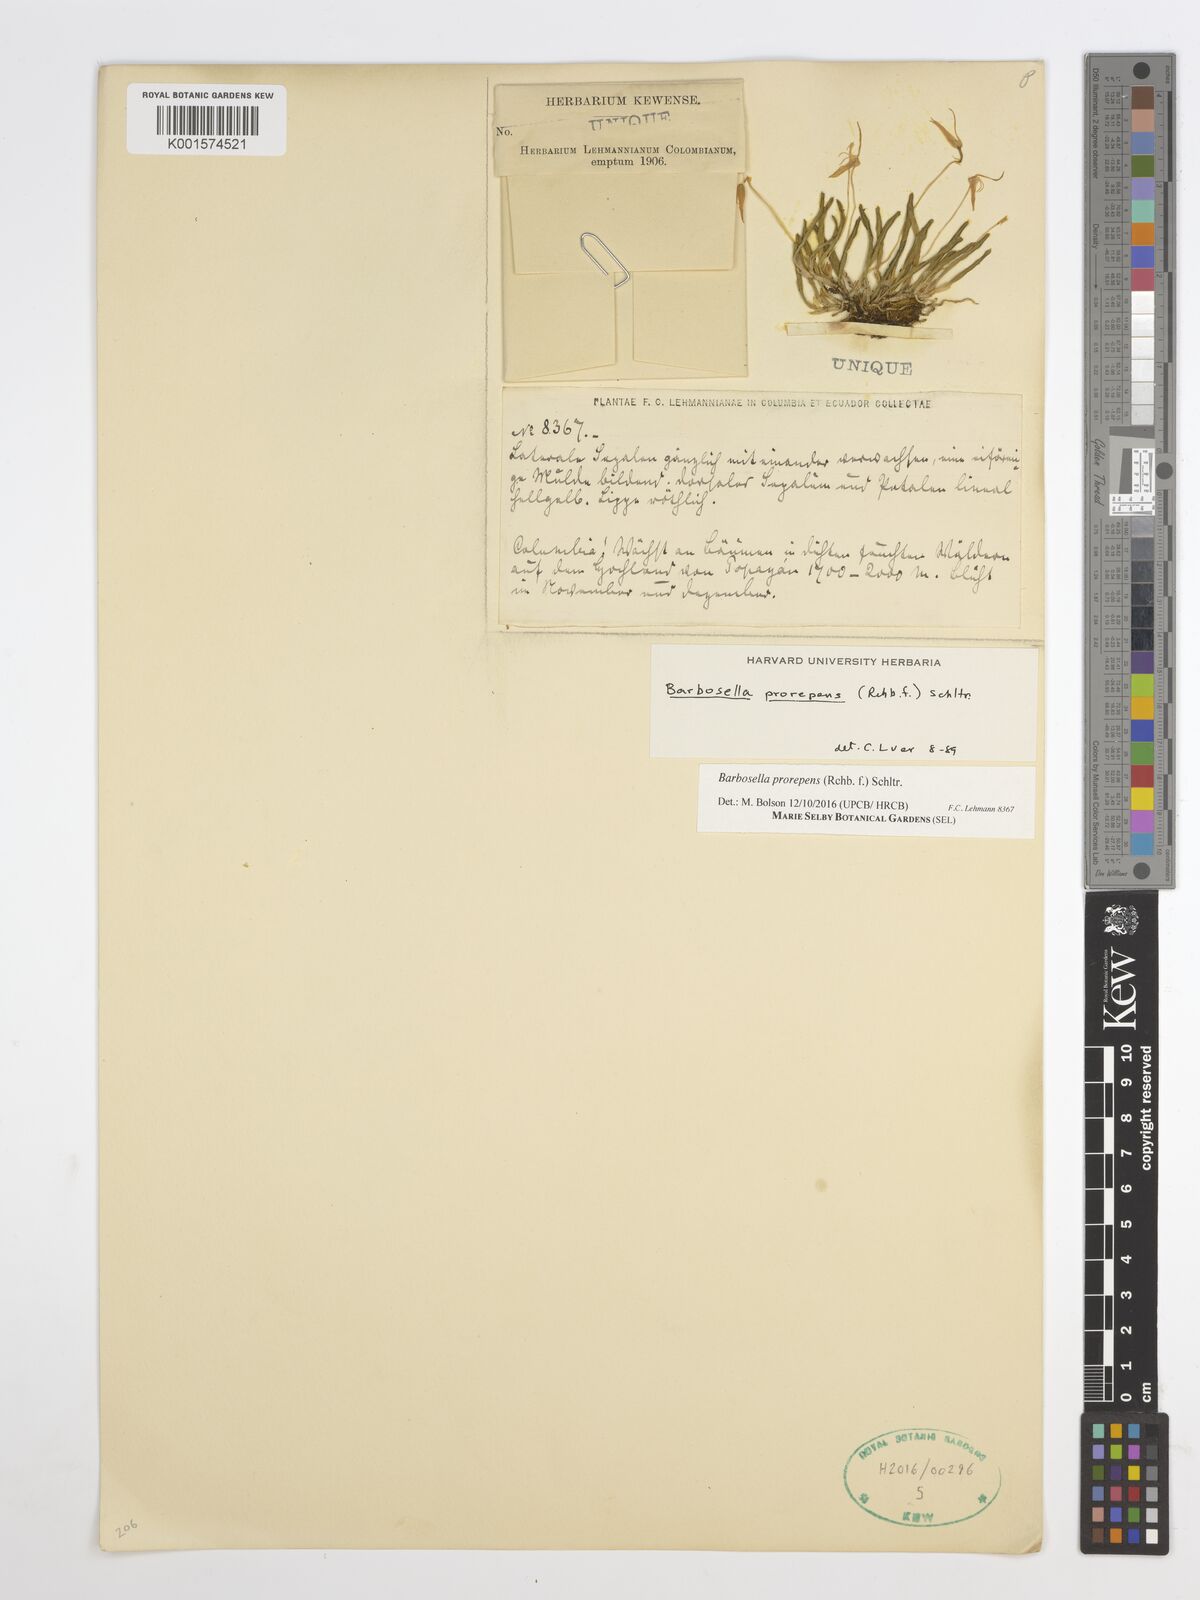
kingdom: Plantae
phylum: Tracheophyta
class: Liliopsida
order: Asparagales
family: Orchidaceae
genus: Barbosella
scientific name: Barbosella prorepens
